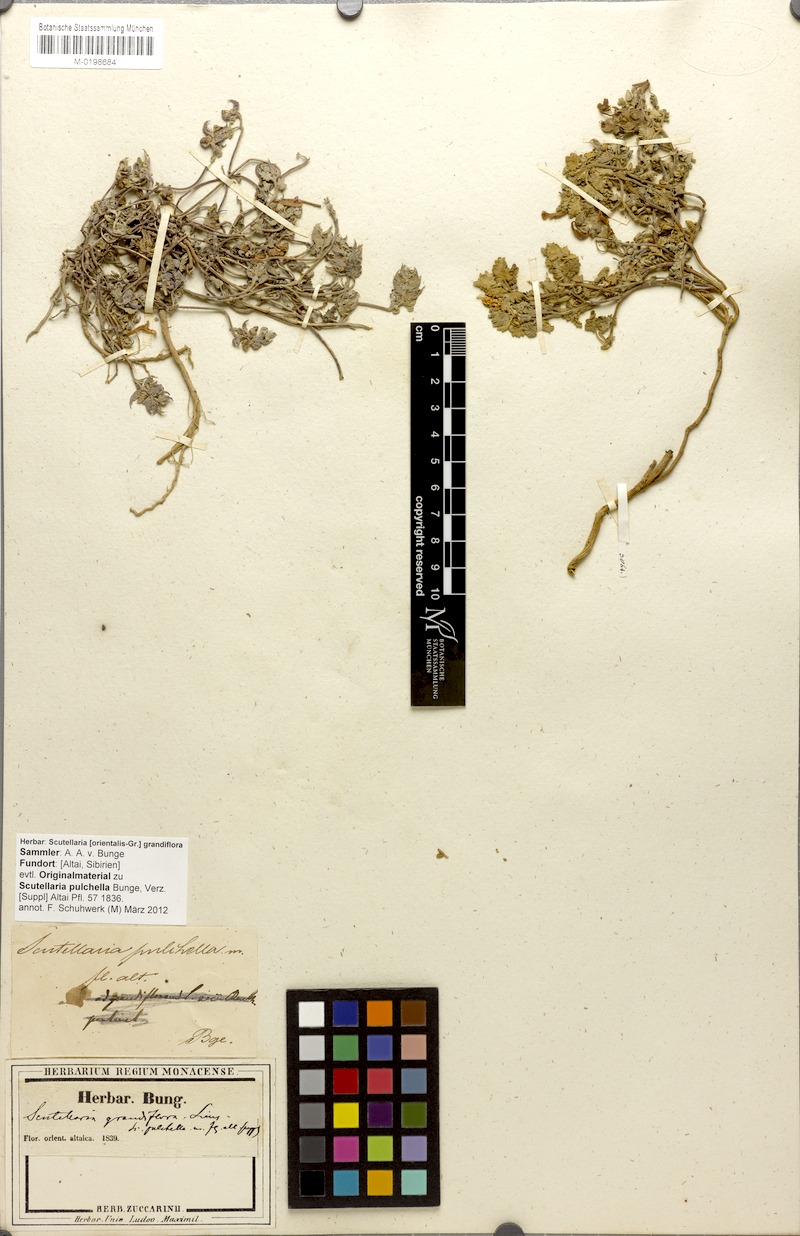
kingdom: Plantae
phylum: Tracheophyta
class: Magnoliopsida
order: Lamiales
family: Lamiaceae
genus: Scutellaria
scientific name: Scutellaria grandiflora
